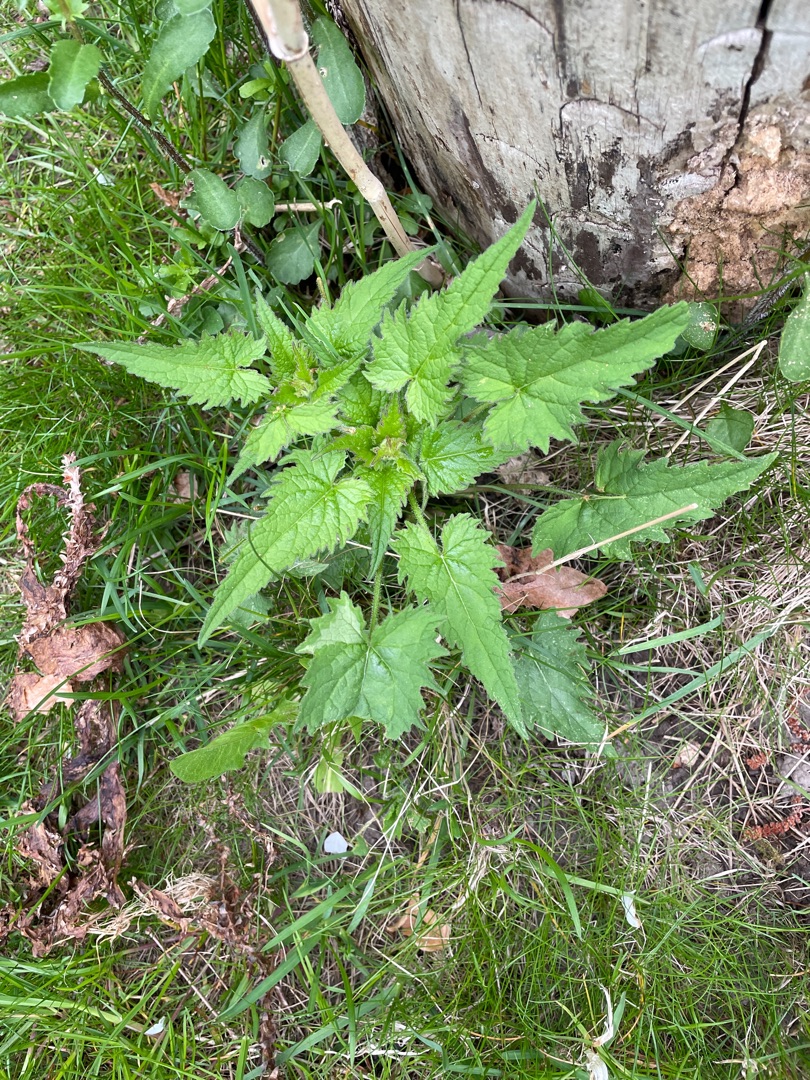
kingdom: Plantae
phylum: Tracheophyta
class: Magnoliopsida
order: Asterales
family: Campanulaceae
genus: Campanula
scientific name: Campanula trachelium
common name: Nælde-klokke
